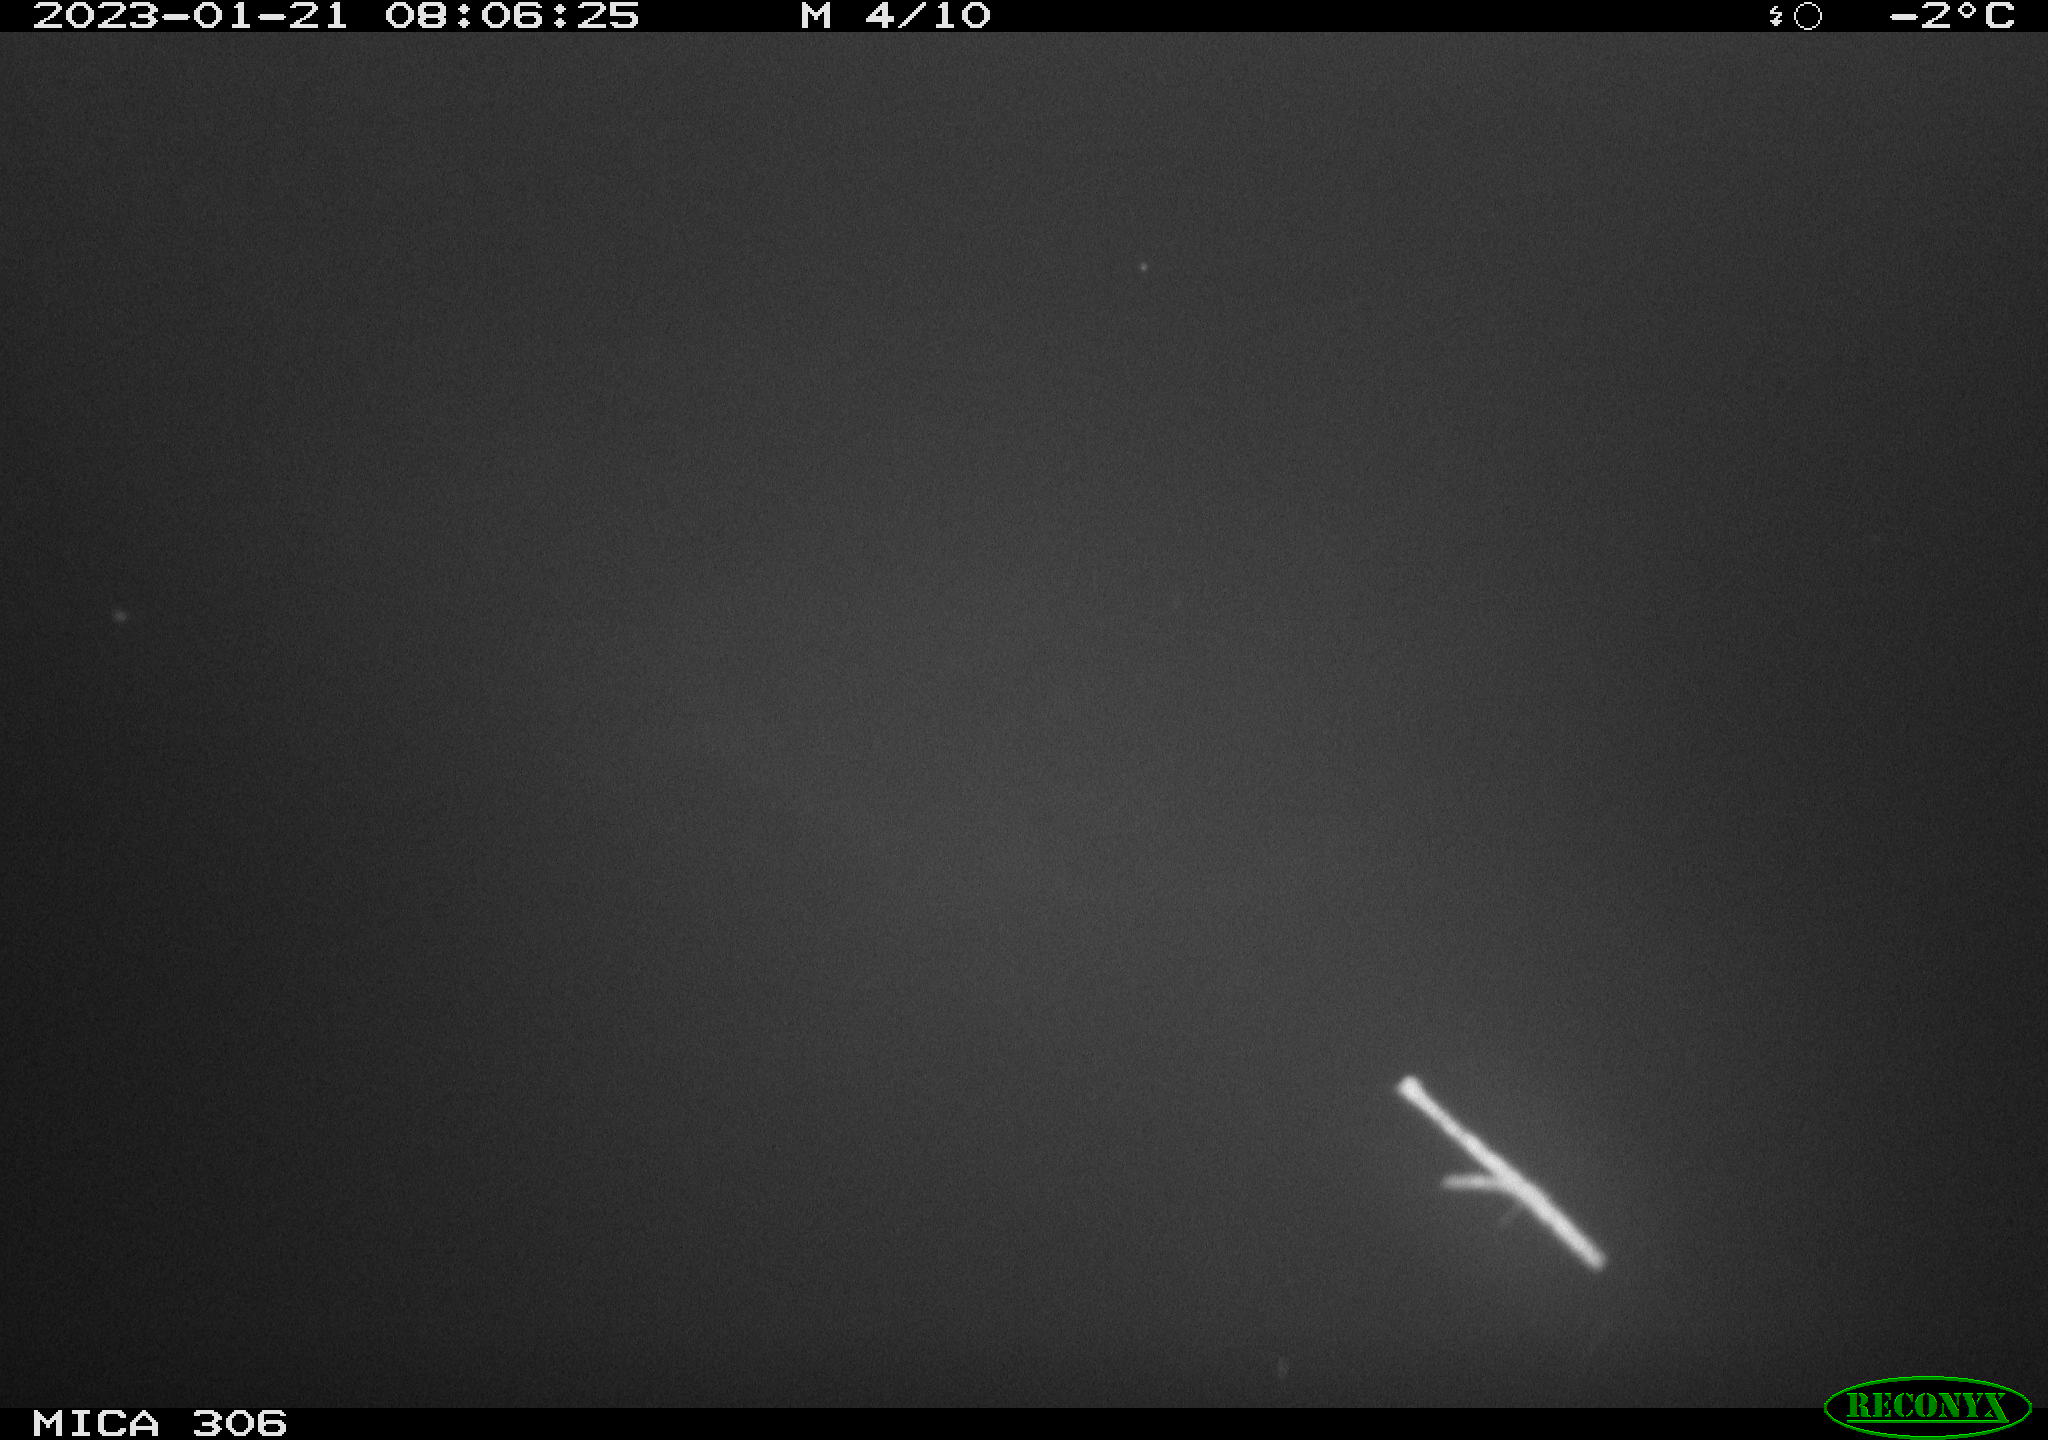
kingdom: Animalia
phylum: Chordata
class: Aves
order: Anseriformes
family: Anatidae
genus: Anas
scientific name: Anas
